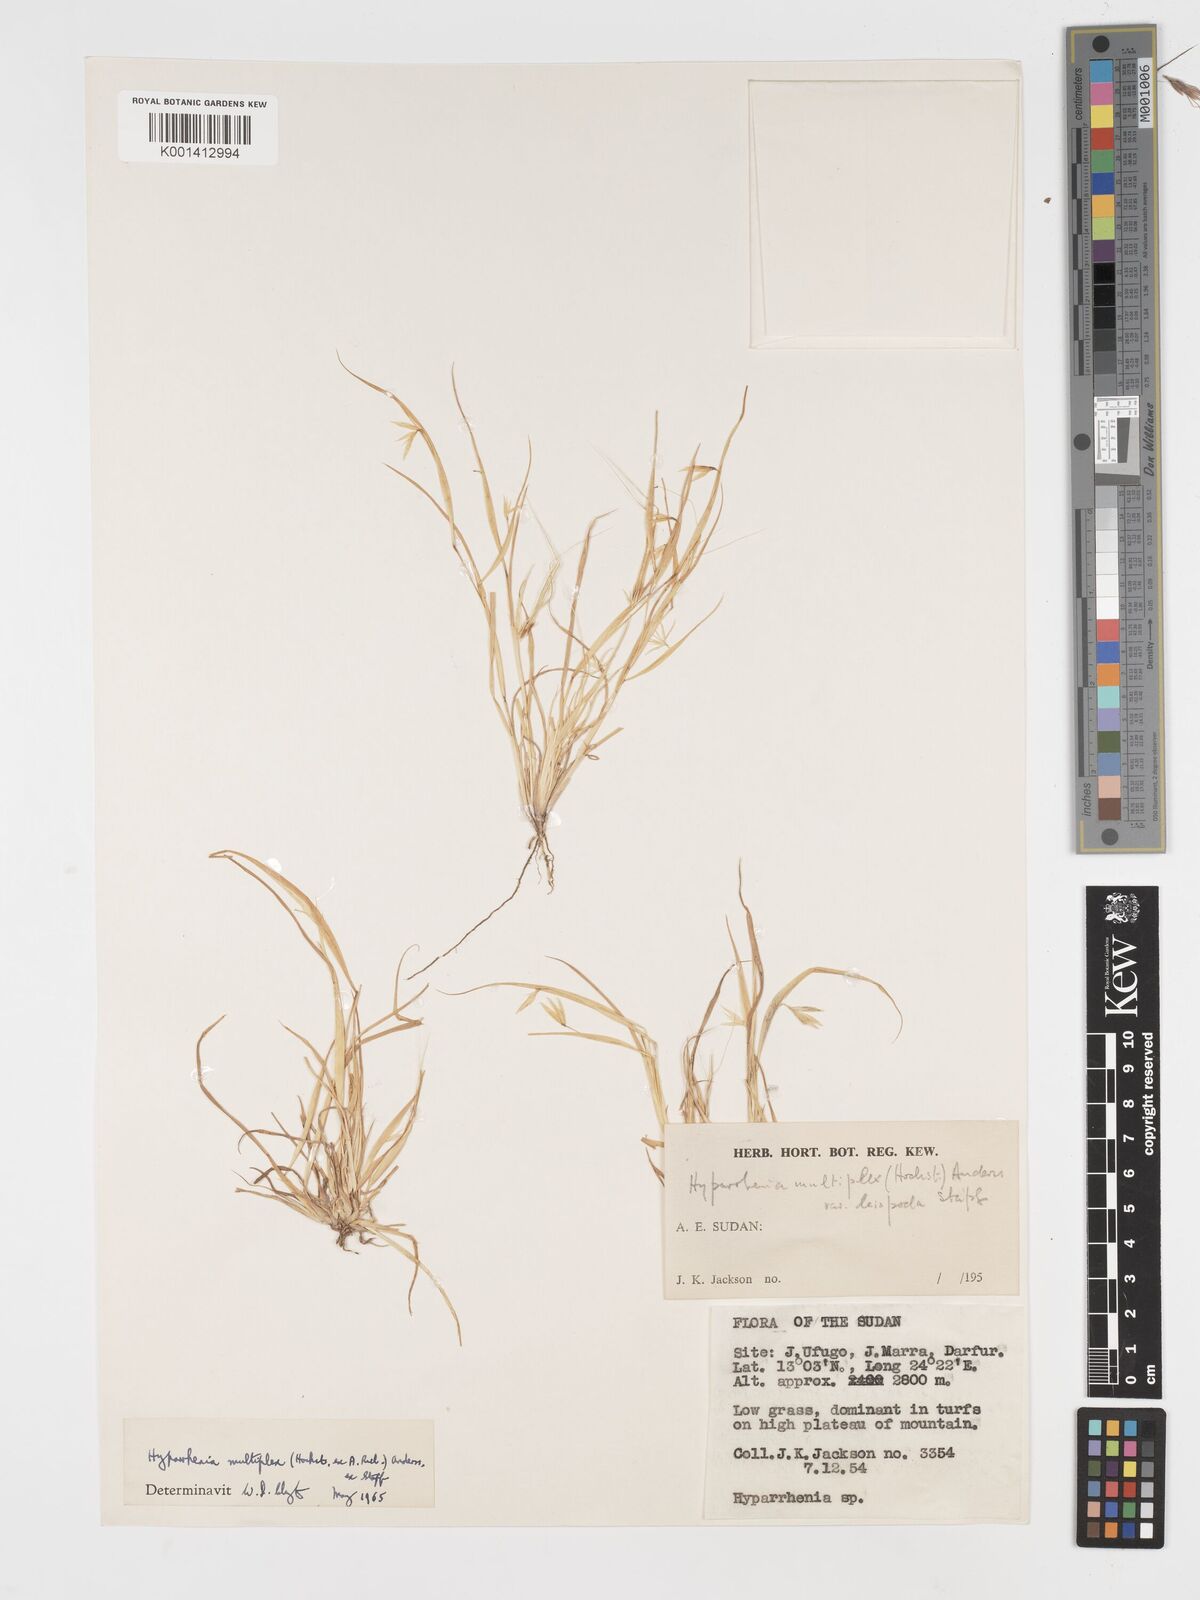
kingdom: Plantae
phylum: Tracheophyta
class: Liliopsida
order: Poales
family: Poaceae
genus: Hyparrhenia
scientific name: Hyparrhenia multiplex
